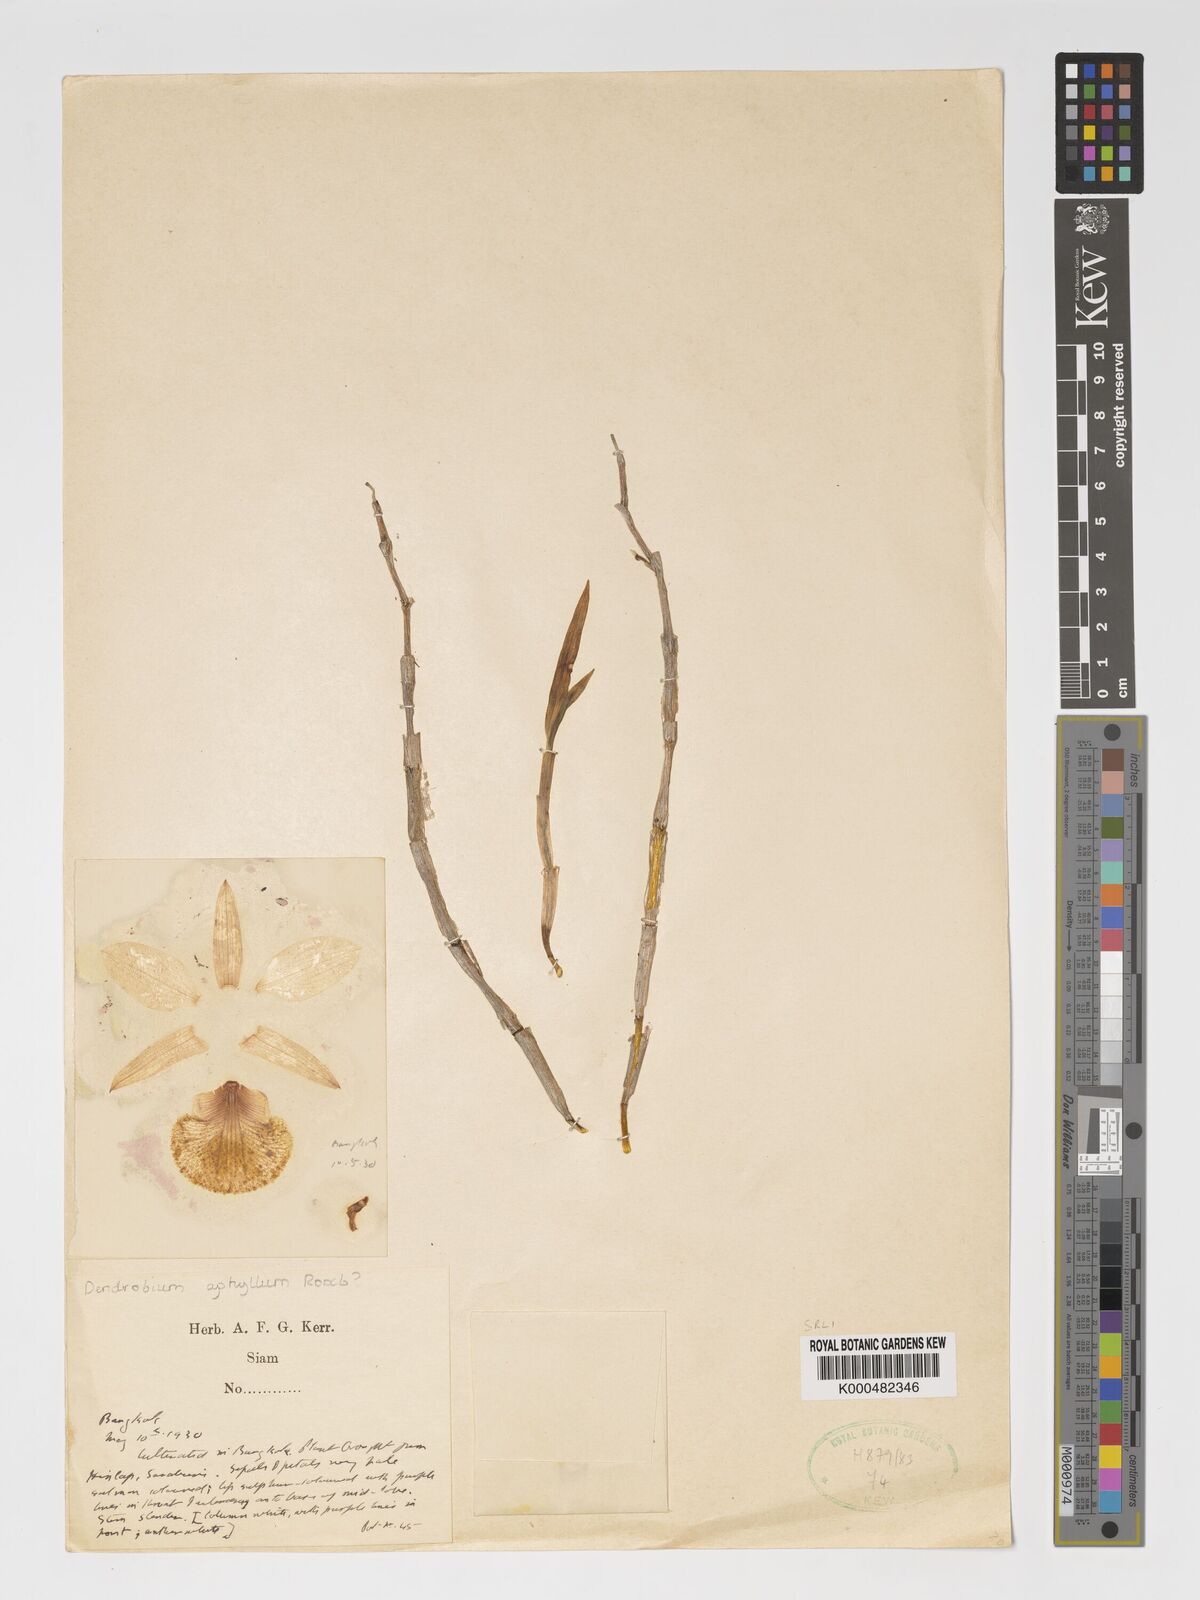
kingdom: Plantae
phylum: Tracheophyta
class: Liliopsida
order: Asparagales
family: Orchidaceae
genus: Dendrobium
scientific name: Dendrobium macrostachyum
